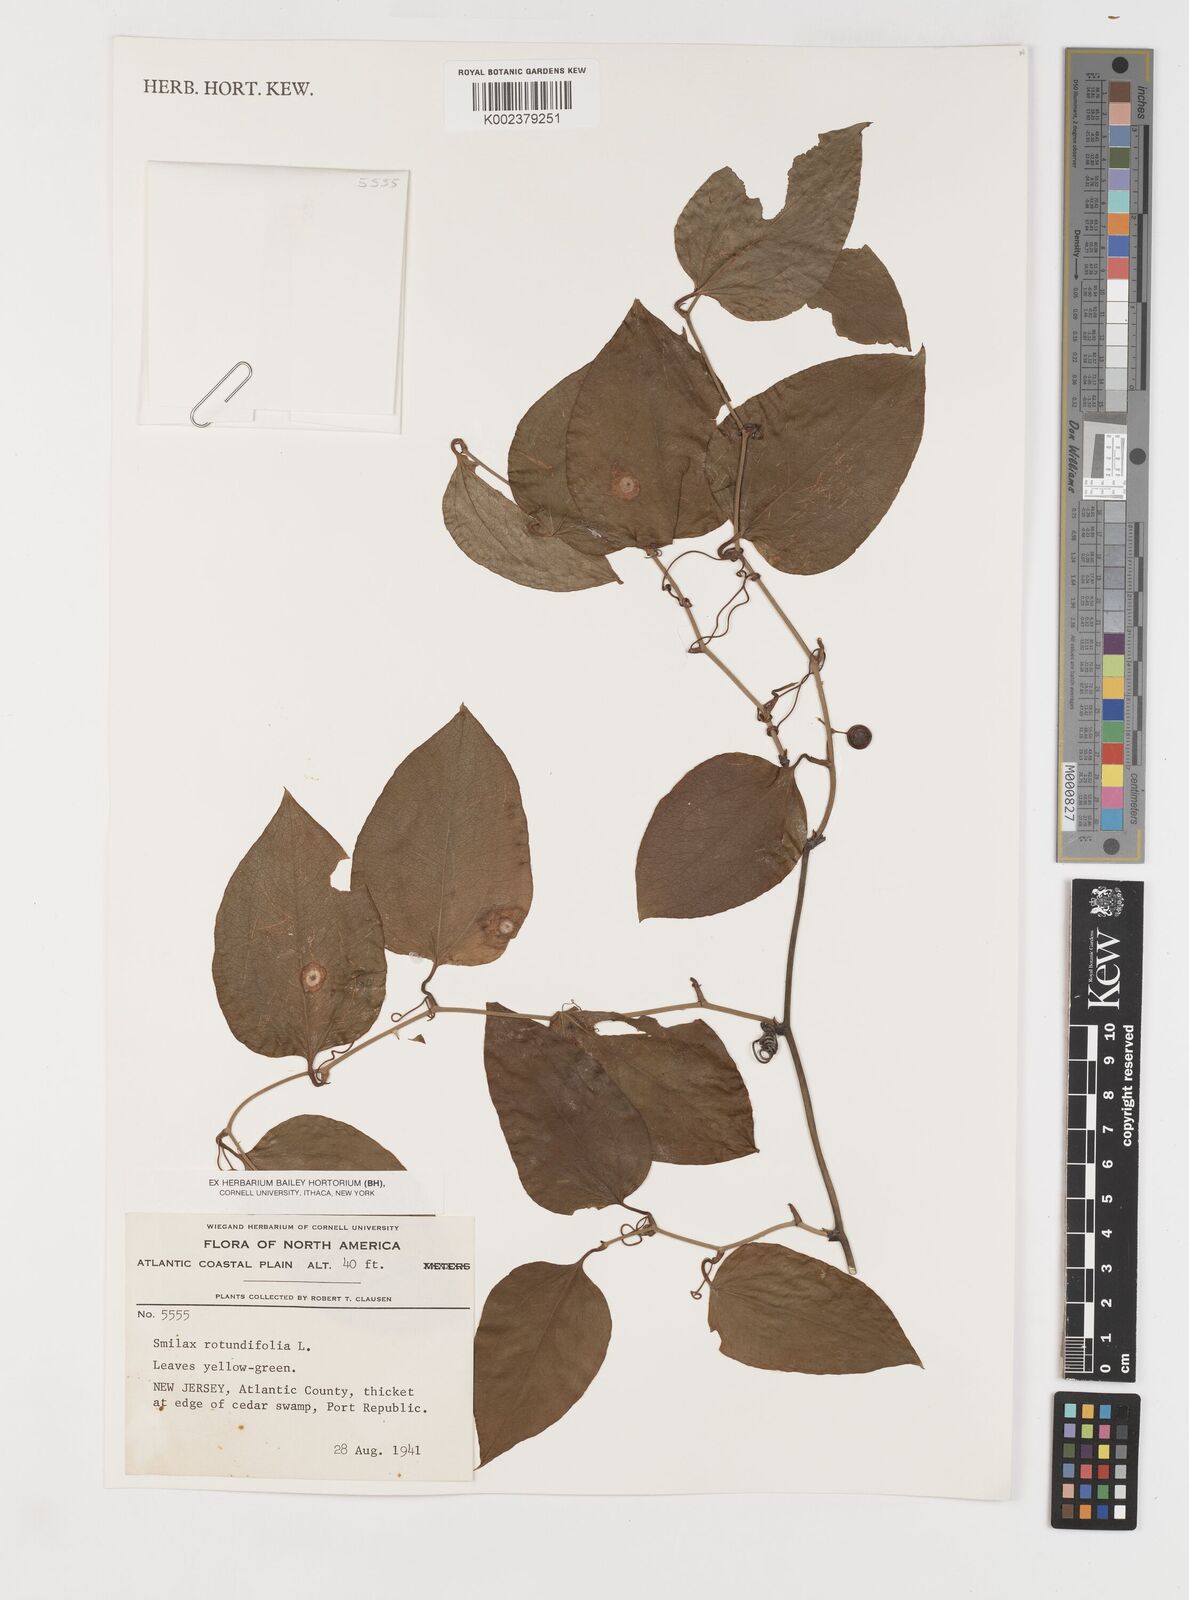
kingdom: Plantae
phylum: Tracheophyta
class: Liliopsida
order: Liliales
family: Smilacaceae
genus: Smilax
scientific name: Smilax rotundifolia
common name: Bullbriar
